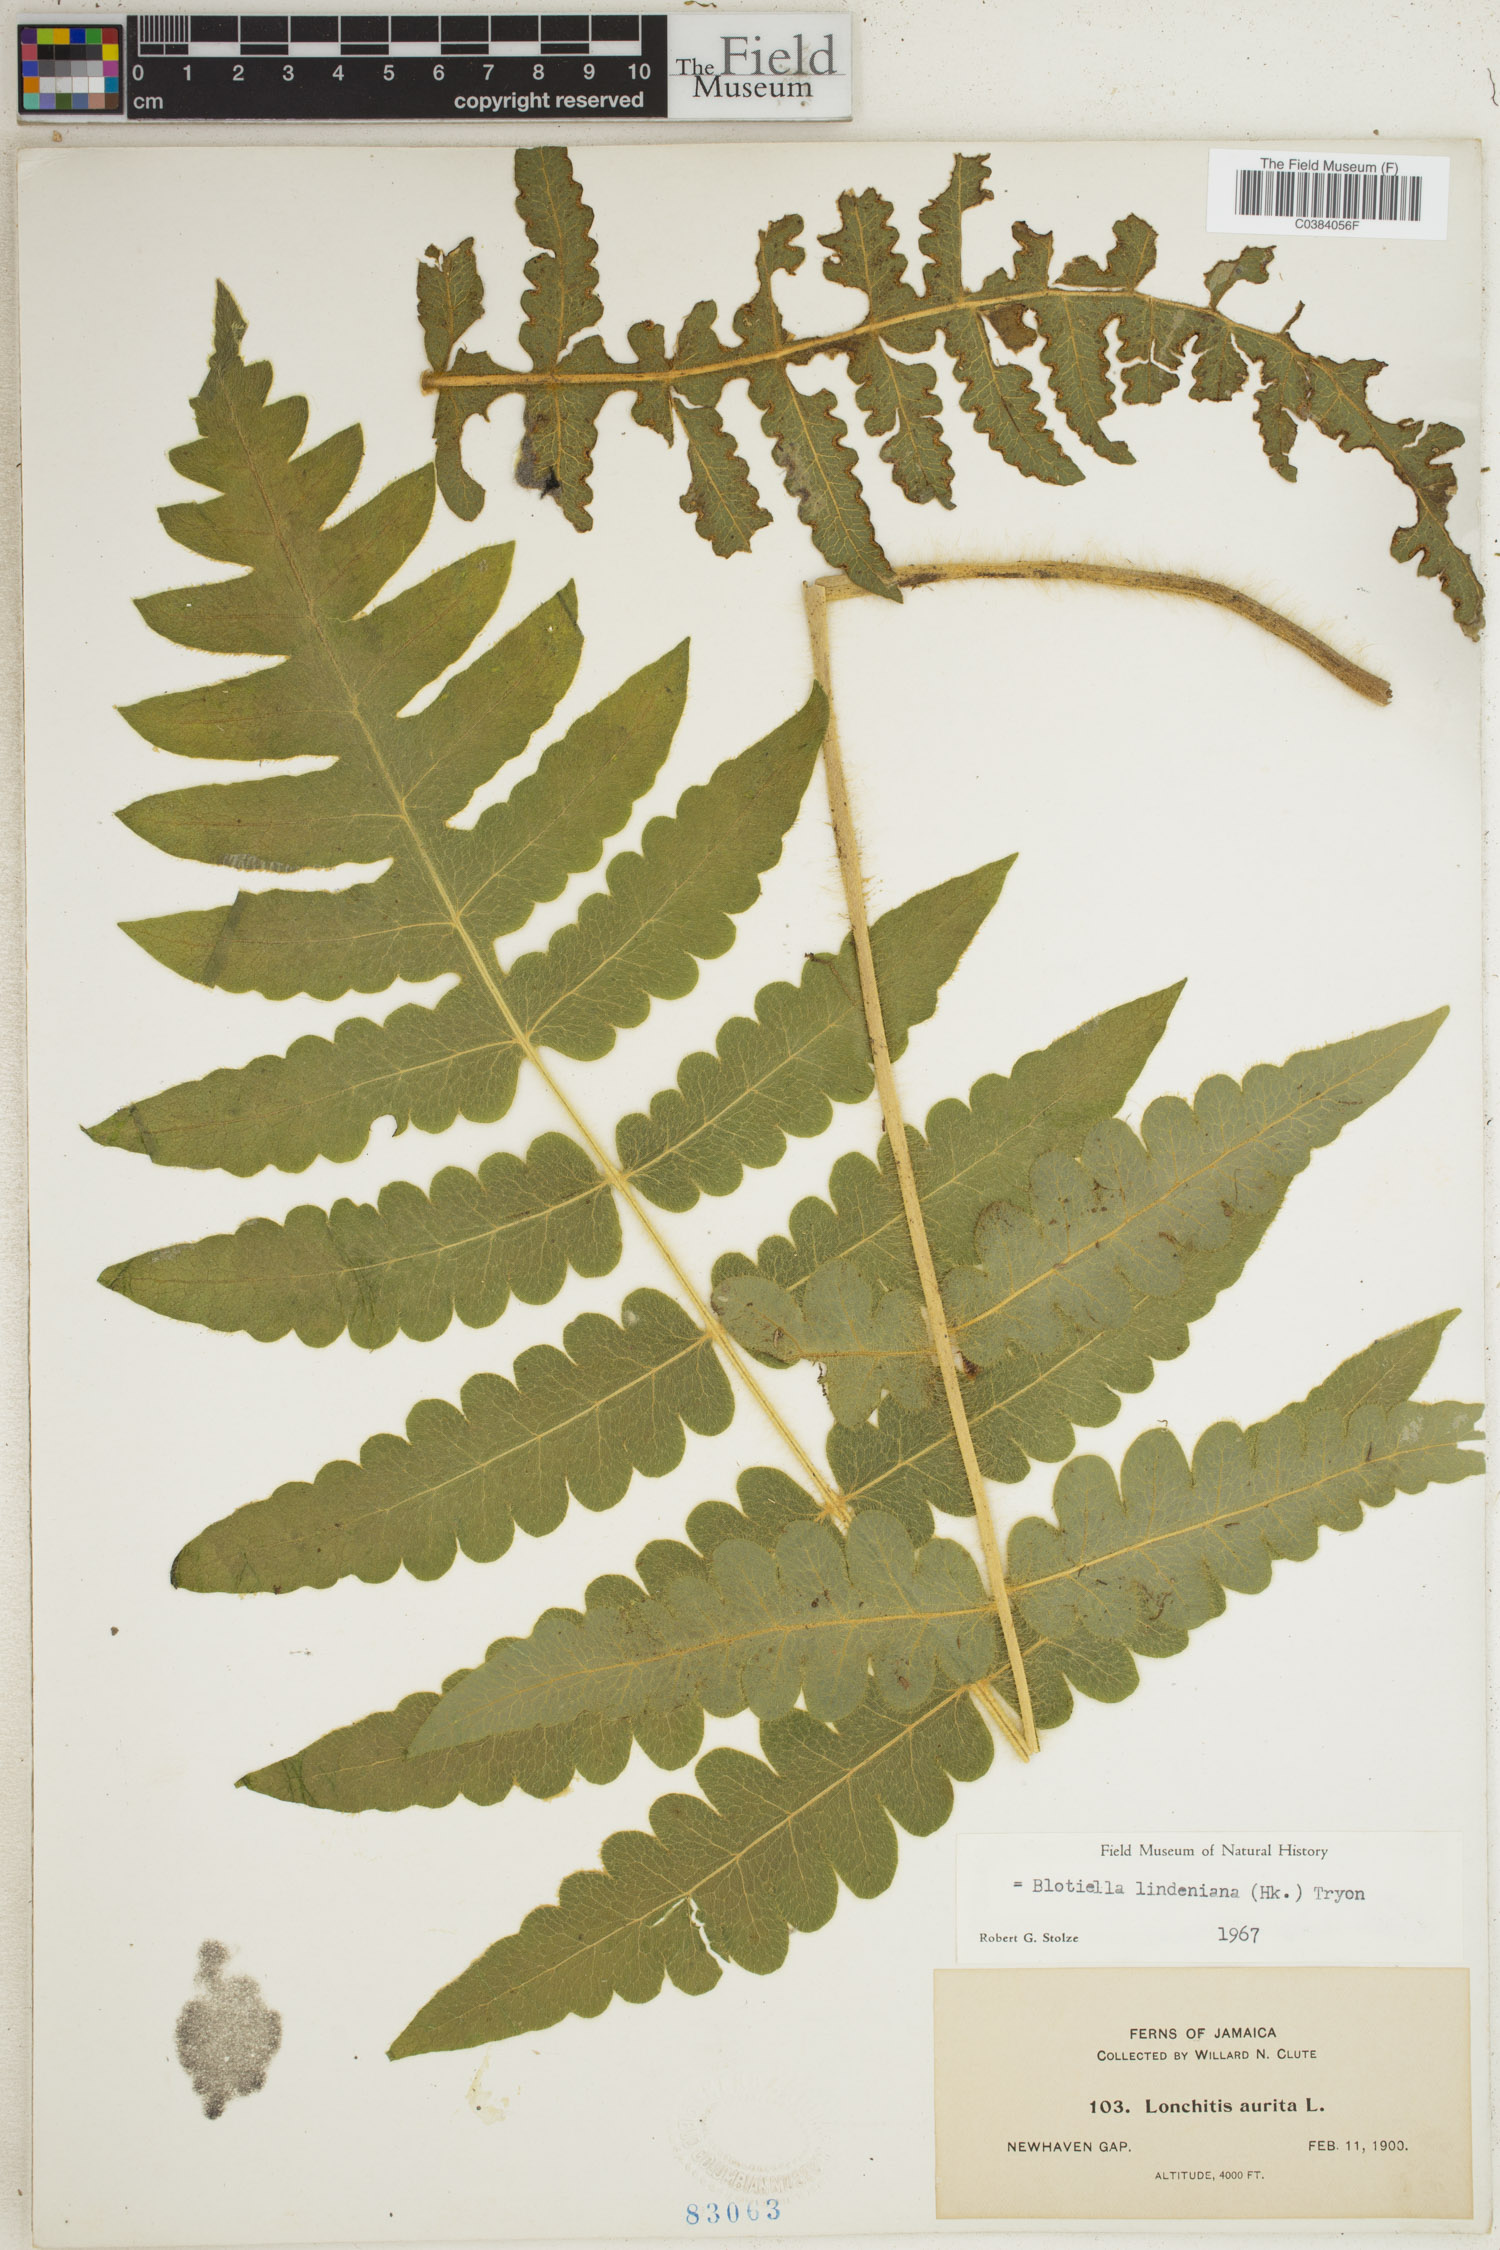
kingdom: Plantae
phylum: Tracheophyta
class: Polypodiopsida
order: Polypodiales
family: Dennstaedtiaceae
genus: Blotiella
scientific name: Blotiella aurita
